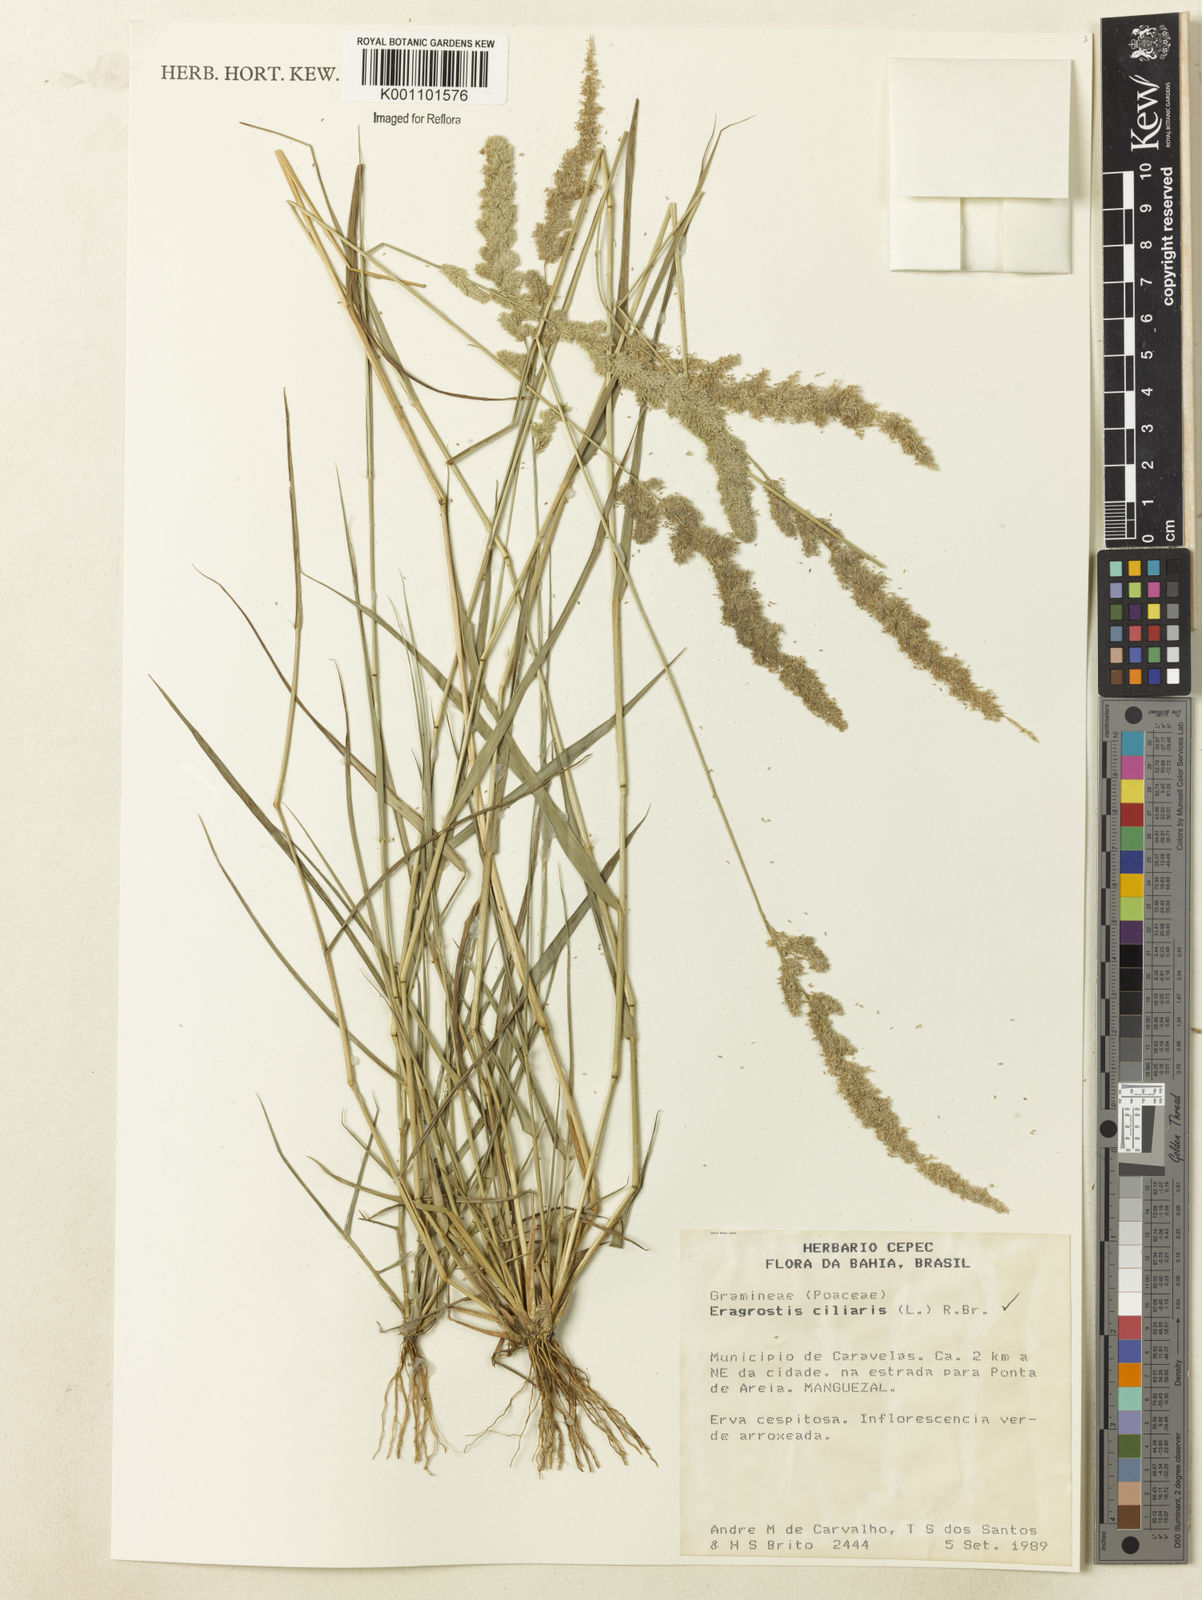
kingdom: Plantae
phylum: Tracheophyta
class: Liliopsida
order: Poales
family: Poaceae
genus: Eragrostis
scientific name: Eragrostis ciliaris
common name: Gophertail lovegrass
